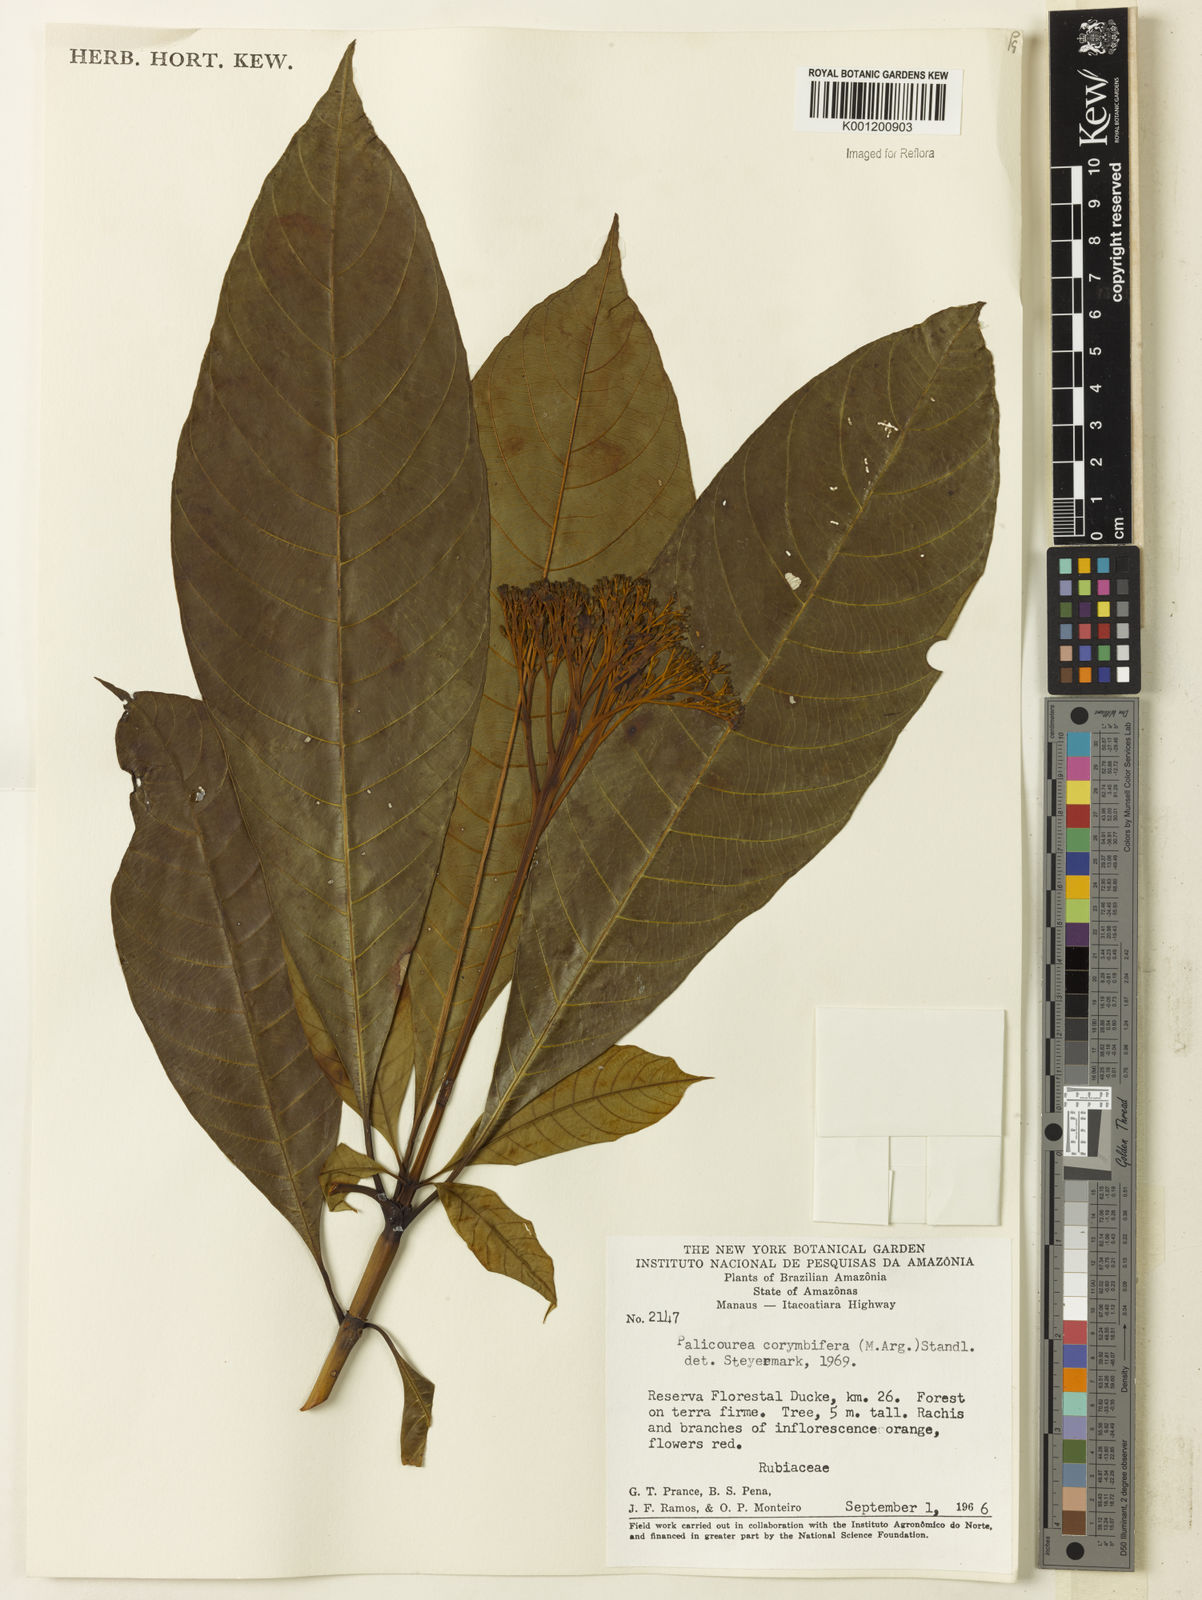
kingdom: Plantae
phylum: Tracheophyta
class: Magnoliopsida
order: Gentianales
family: Rubiaceae
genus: Palicourea
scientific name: Palicourea
